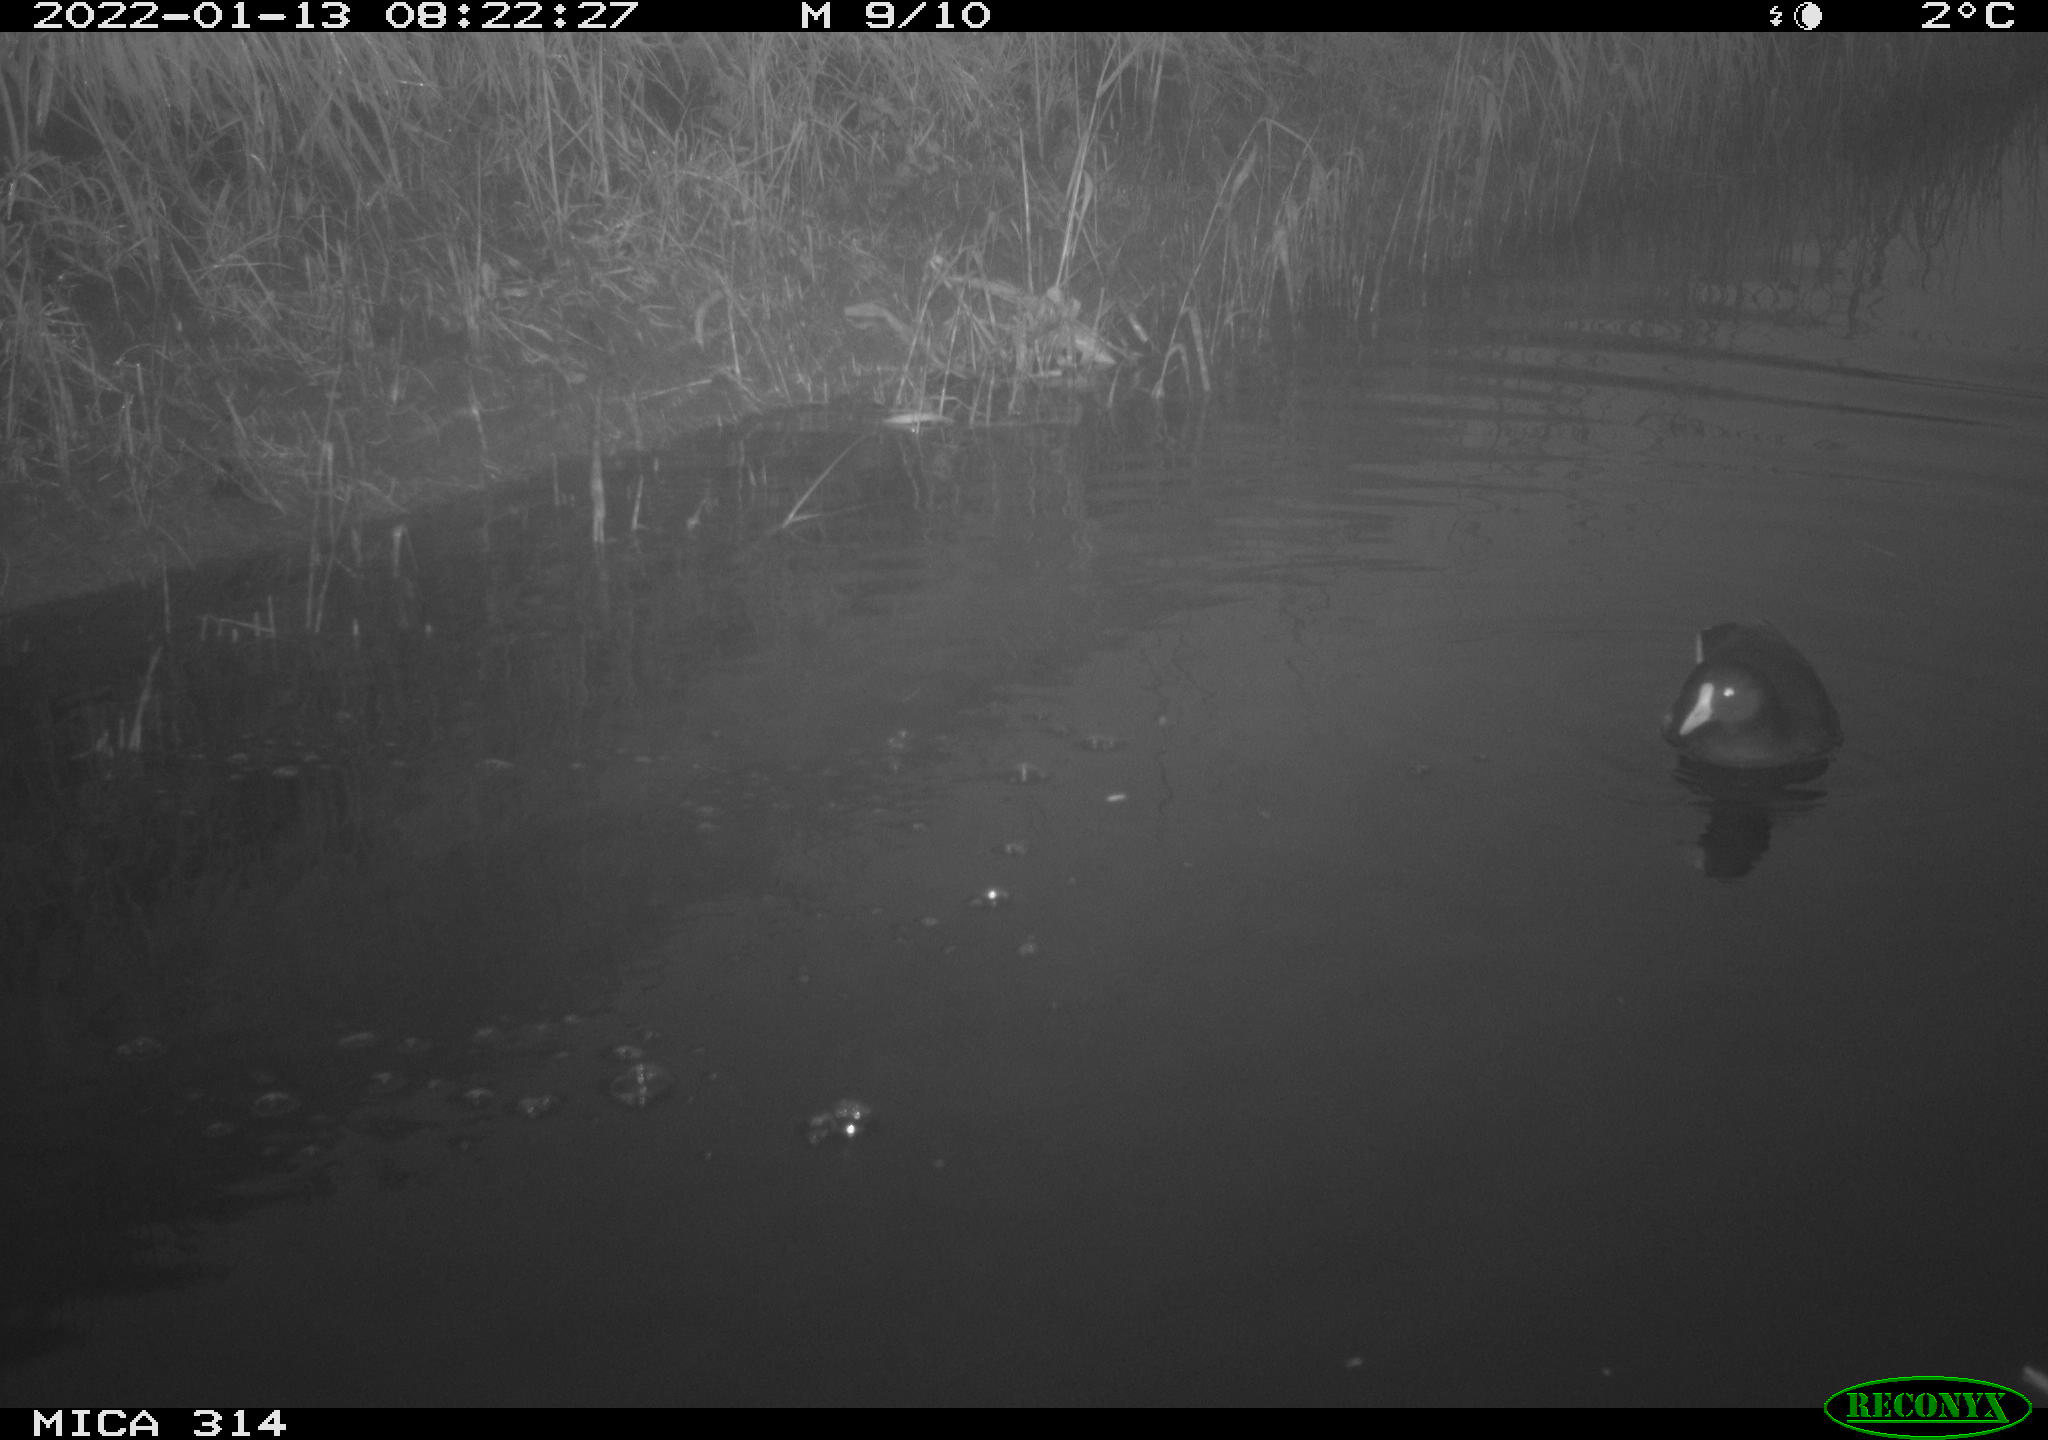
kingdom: Animalia
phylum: Chordata
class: Aves
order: Gruiformes
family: Rallidae
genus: Gallinula
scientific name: Gallinula chloropus
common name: Common moorhen
